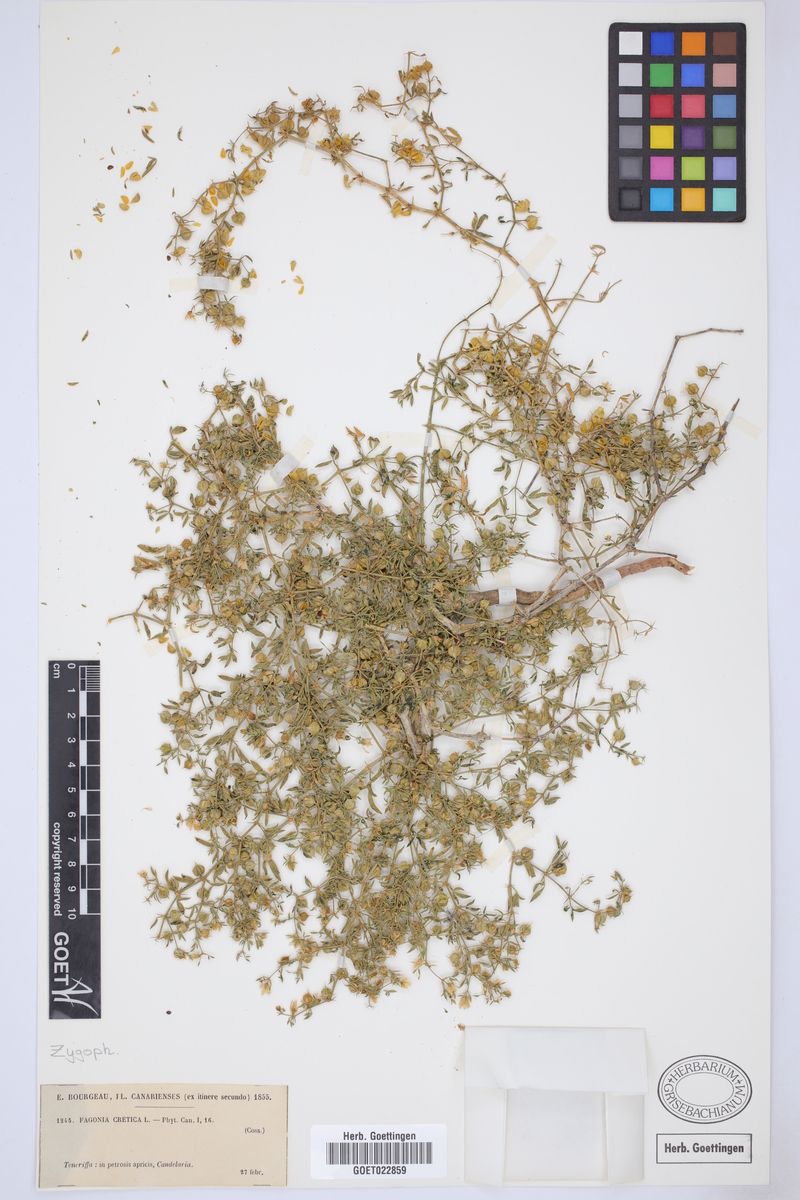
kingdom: Plantae
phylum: Tracheophyta
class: Magnoliopsida
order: Zygophyllales
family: Zygophyllaceae
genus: Fagonia
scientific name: Fagonia cretica
